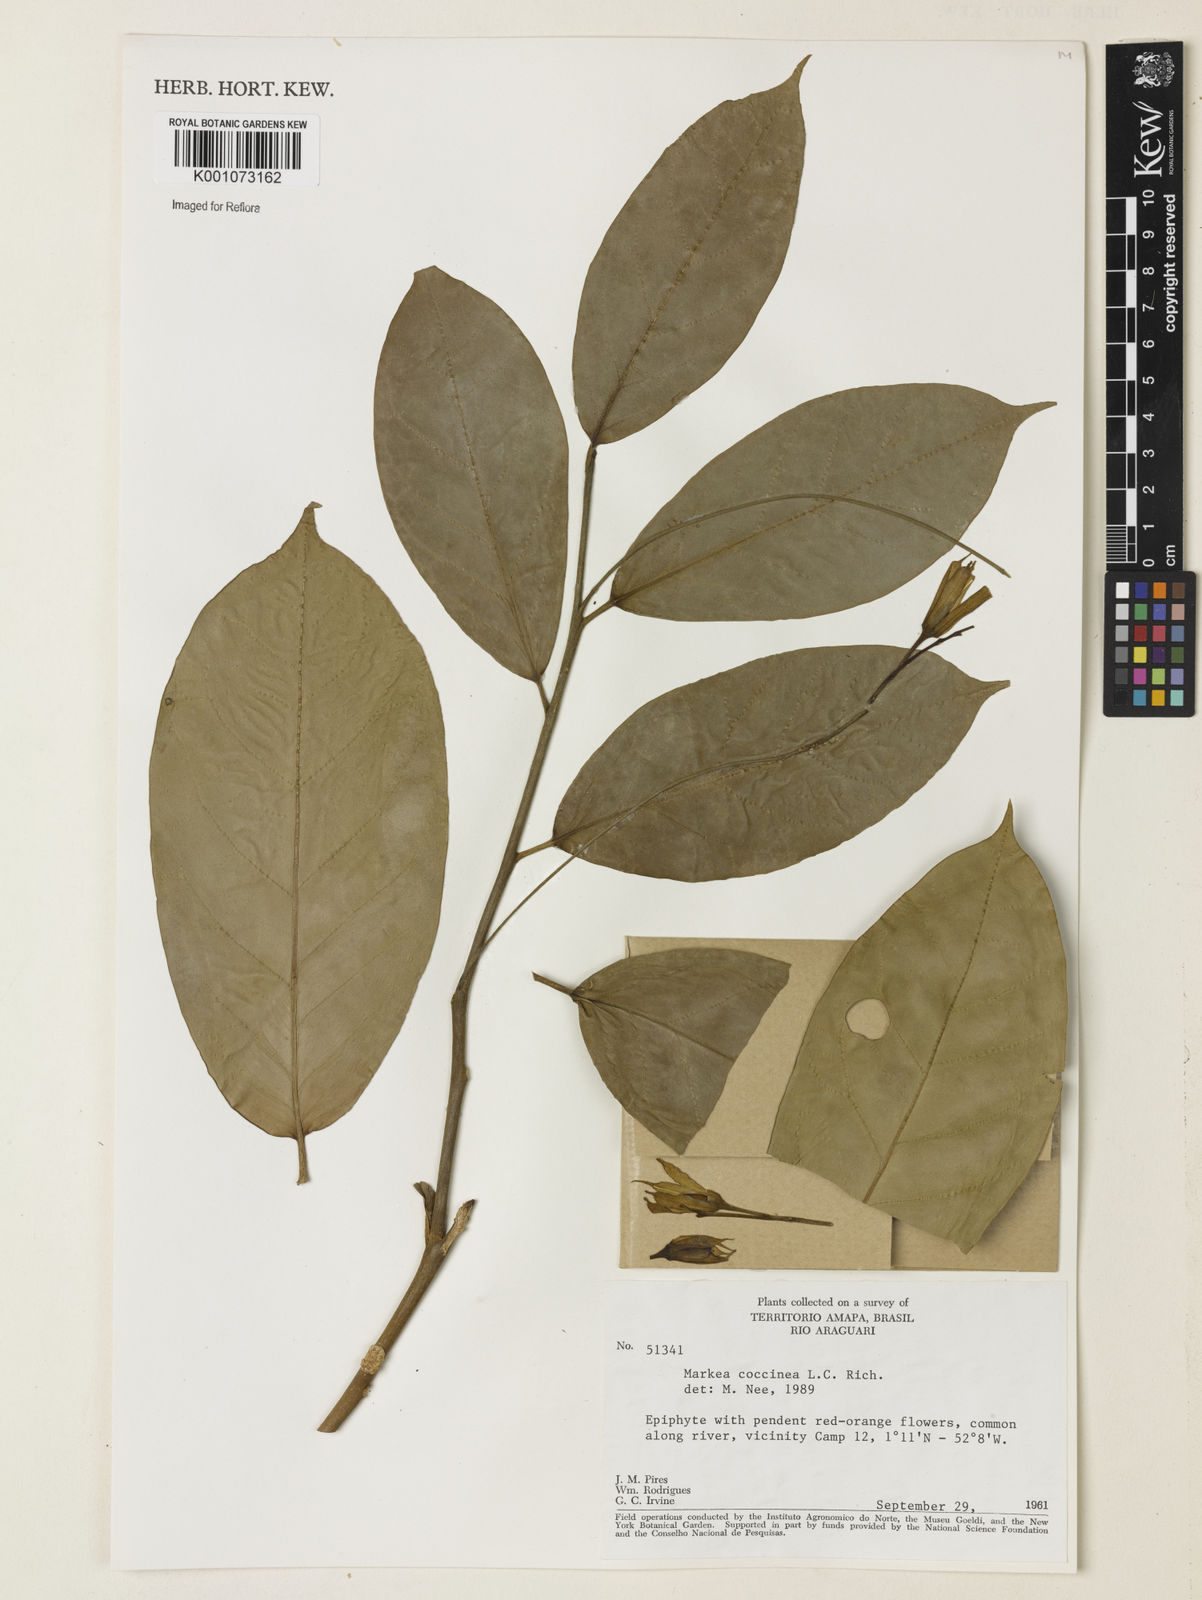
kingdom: Plantae
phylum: Tracheophyta
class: Magnoliopsida
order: Solanales
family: Solanaceae
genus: Markea
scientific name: Markea coccinea
